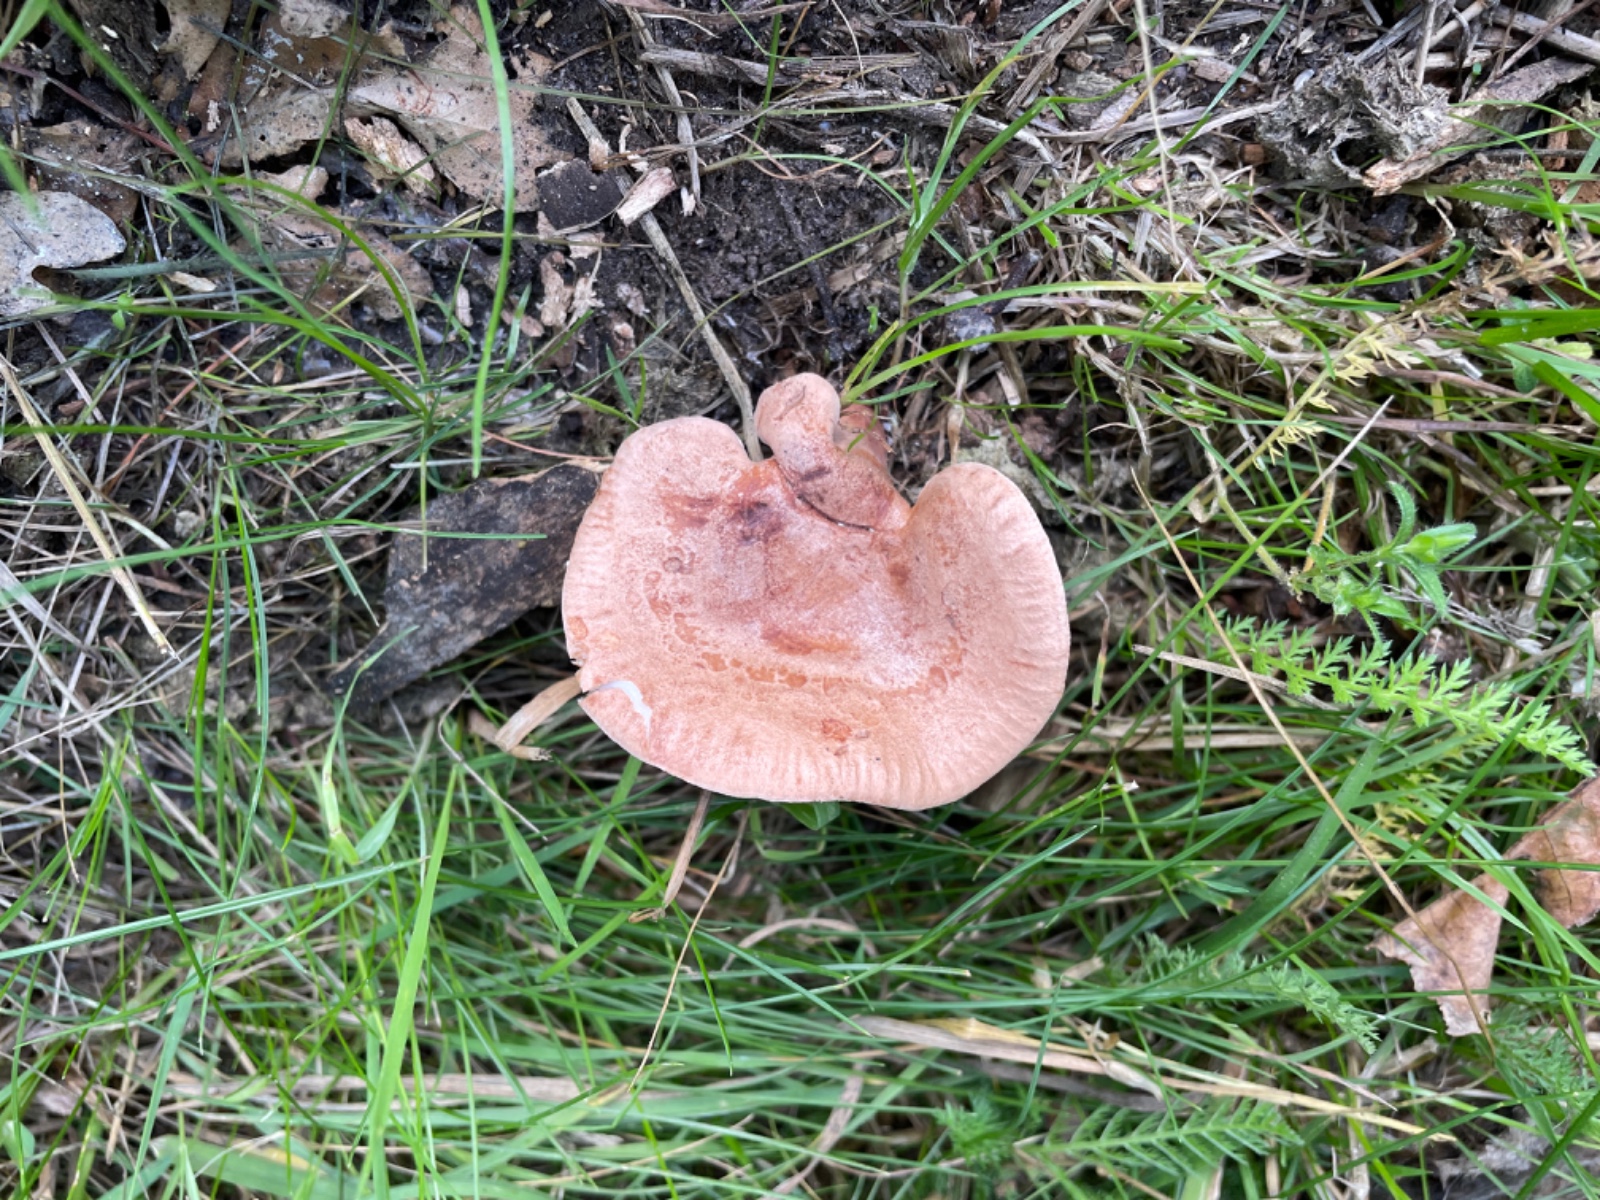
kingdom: Fungi
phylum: Basidiomycota
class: Agaricomycetes
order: Russulales
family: Russulaceae
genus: Lactarius
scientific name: Lactarius quietus
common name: ege-mælkehat
